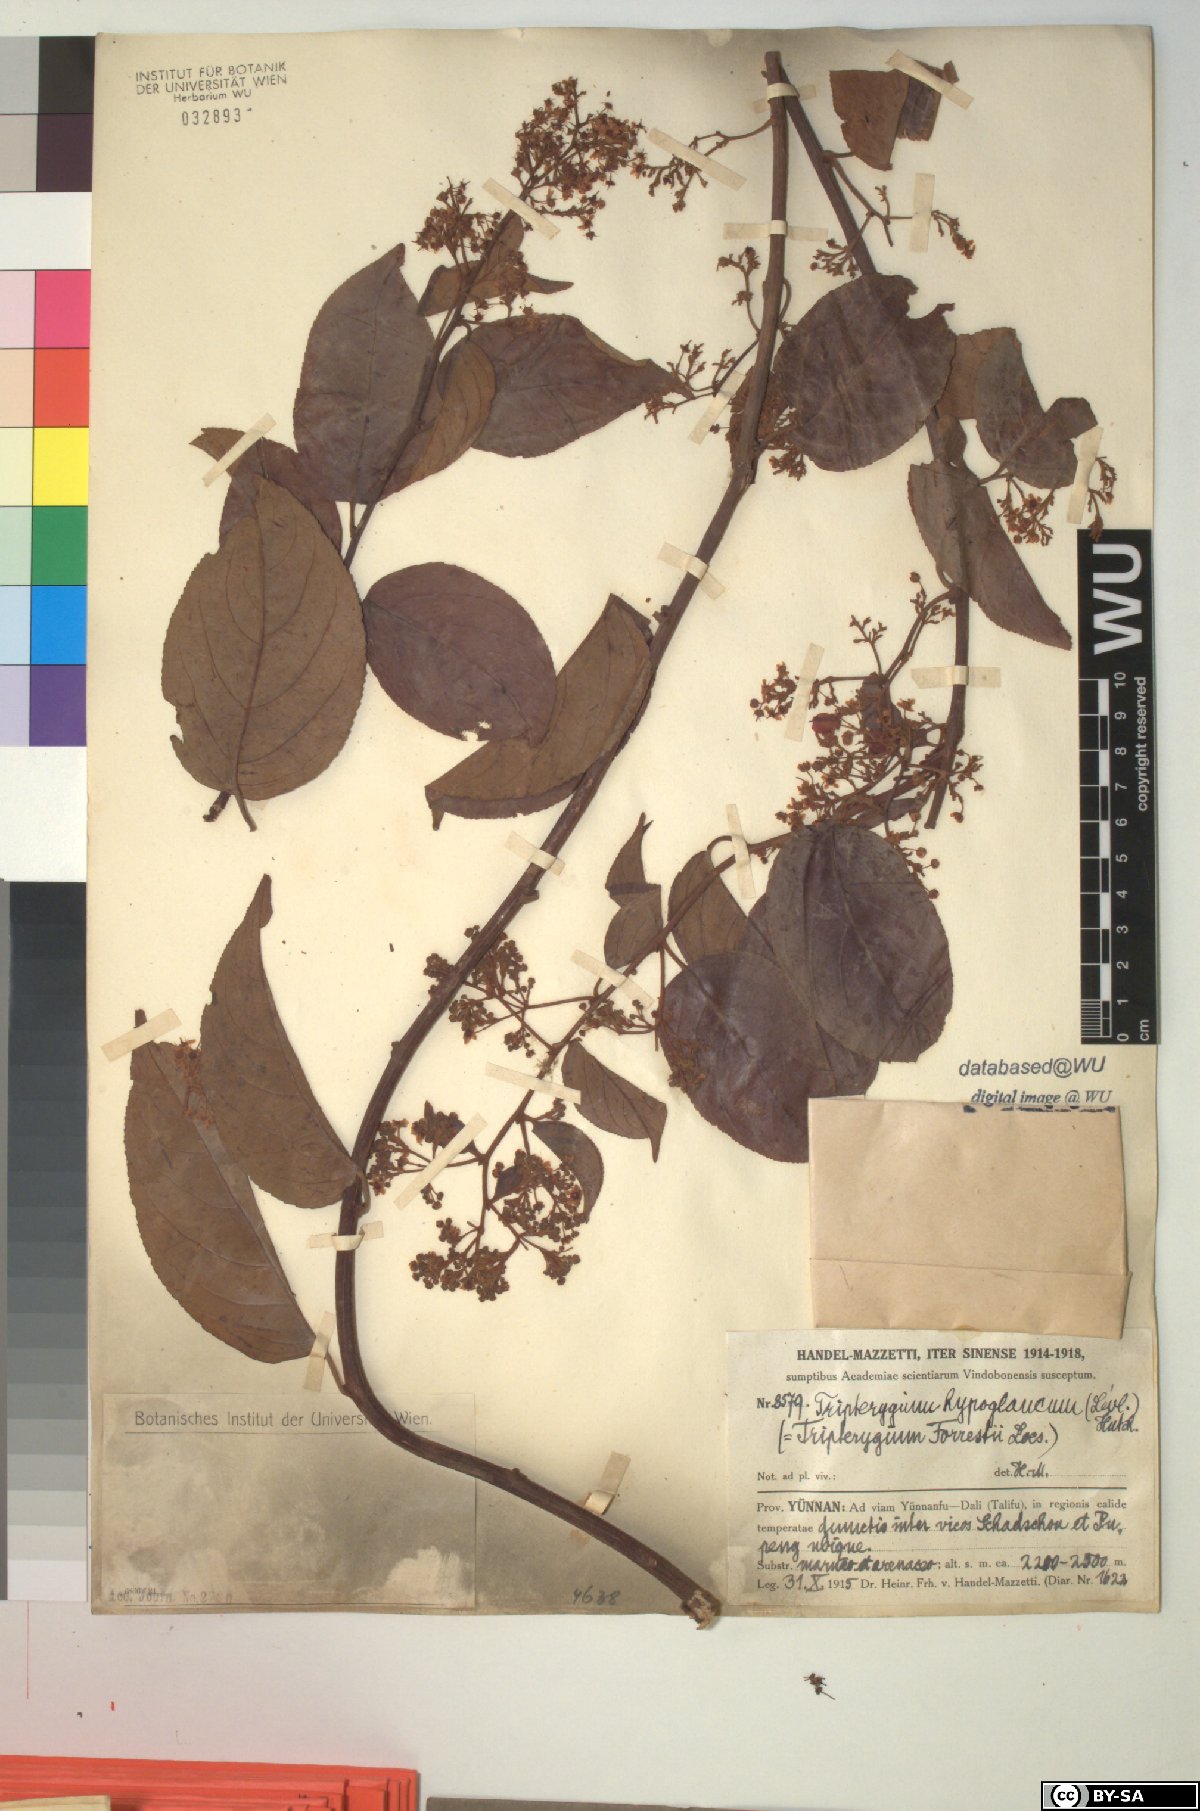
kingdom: Plantae
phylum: Tracheophyta
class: Magnoliopsida
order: Celastrales
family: Celastraceae
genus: Tripterygium
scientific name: Tripterygium wilfordii
